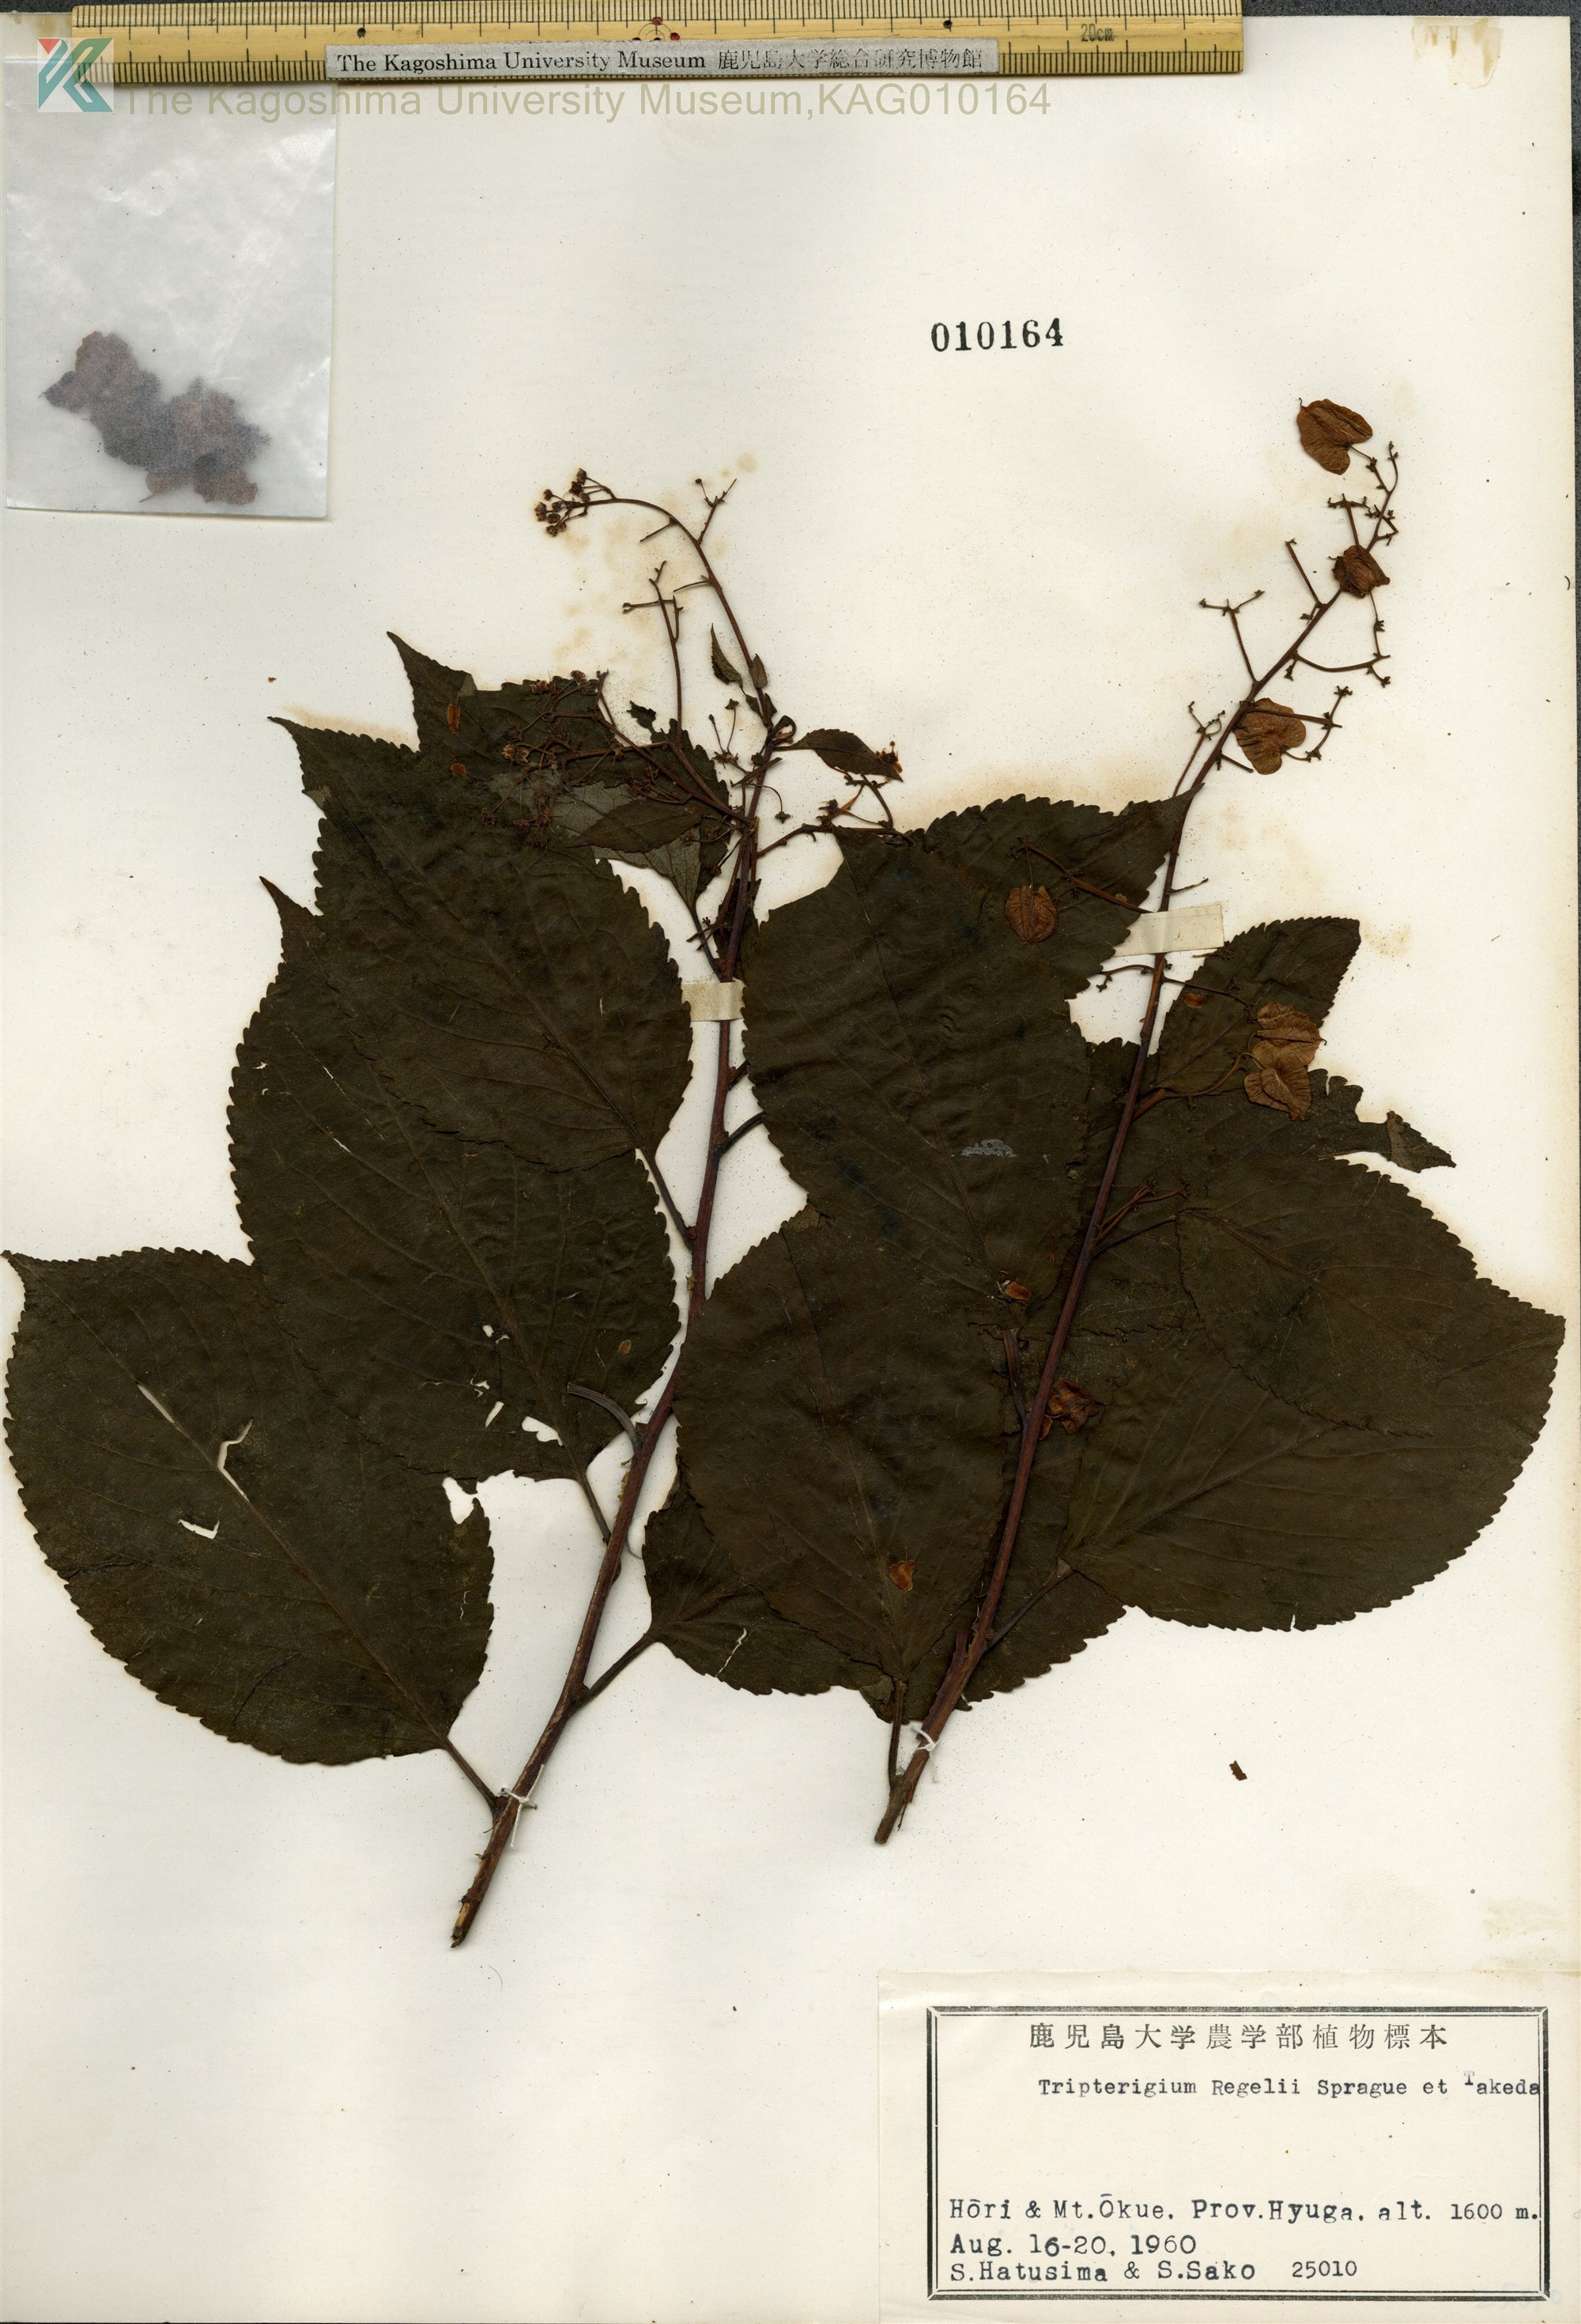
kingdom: Plantae
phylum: Tracheophyta
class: Magnoliopsida
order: Celastrales
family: Celastraceae
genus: Tripterygium
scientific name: Tripterygium wilfordii
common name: クロヅル
